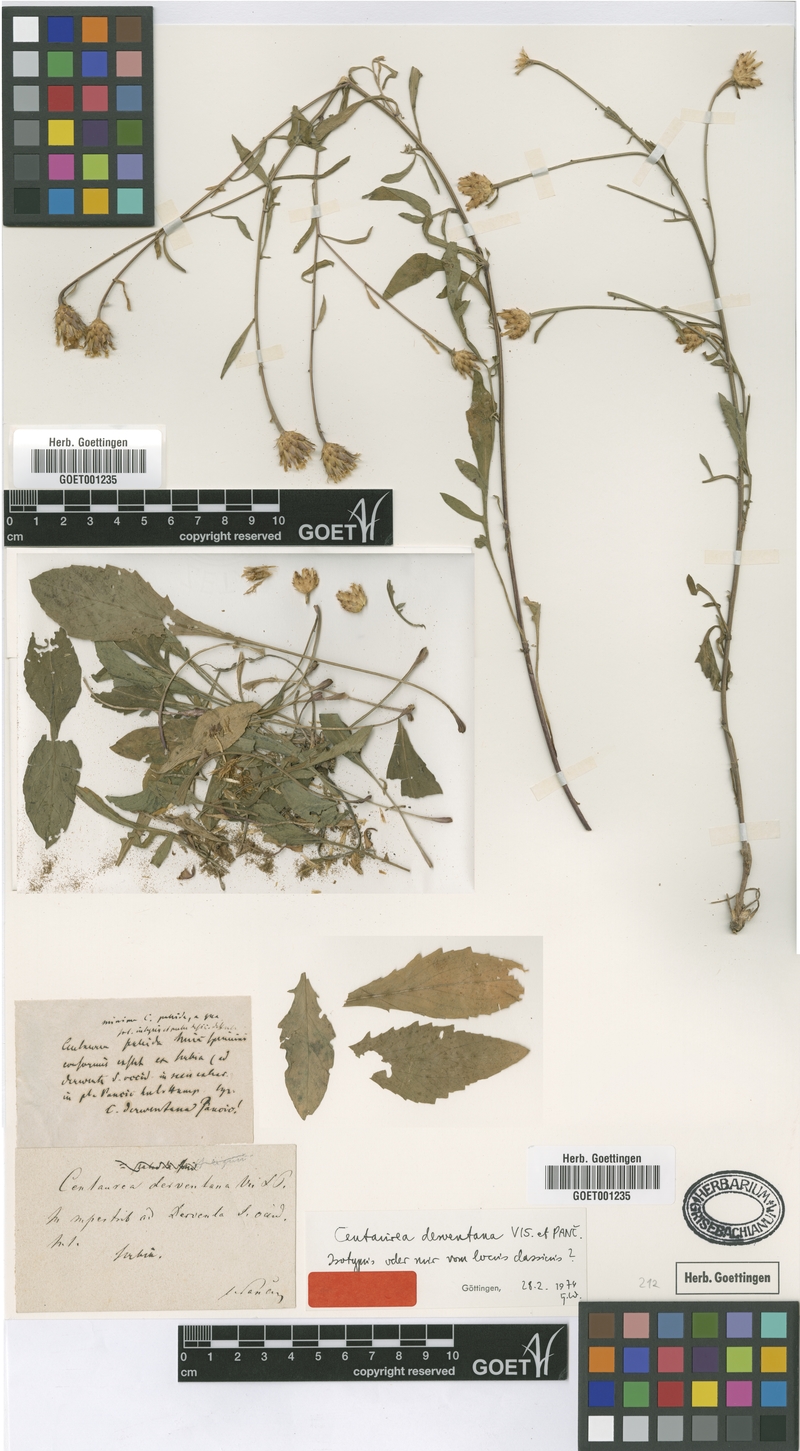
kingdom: Plantae
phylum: Tracheophyta
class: Magnoliopsida
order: Asterales
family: Asteraceae
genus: Centaurea
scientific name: Centaurea derventana
